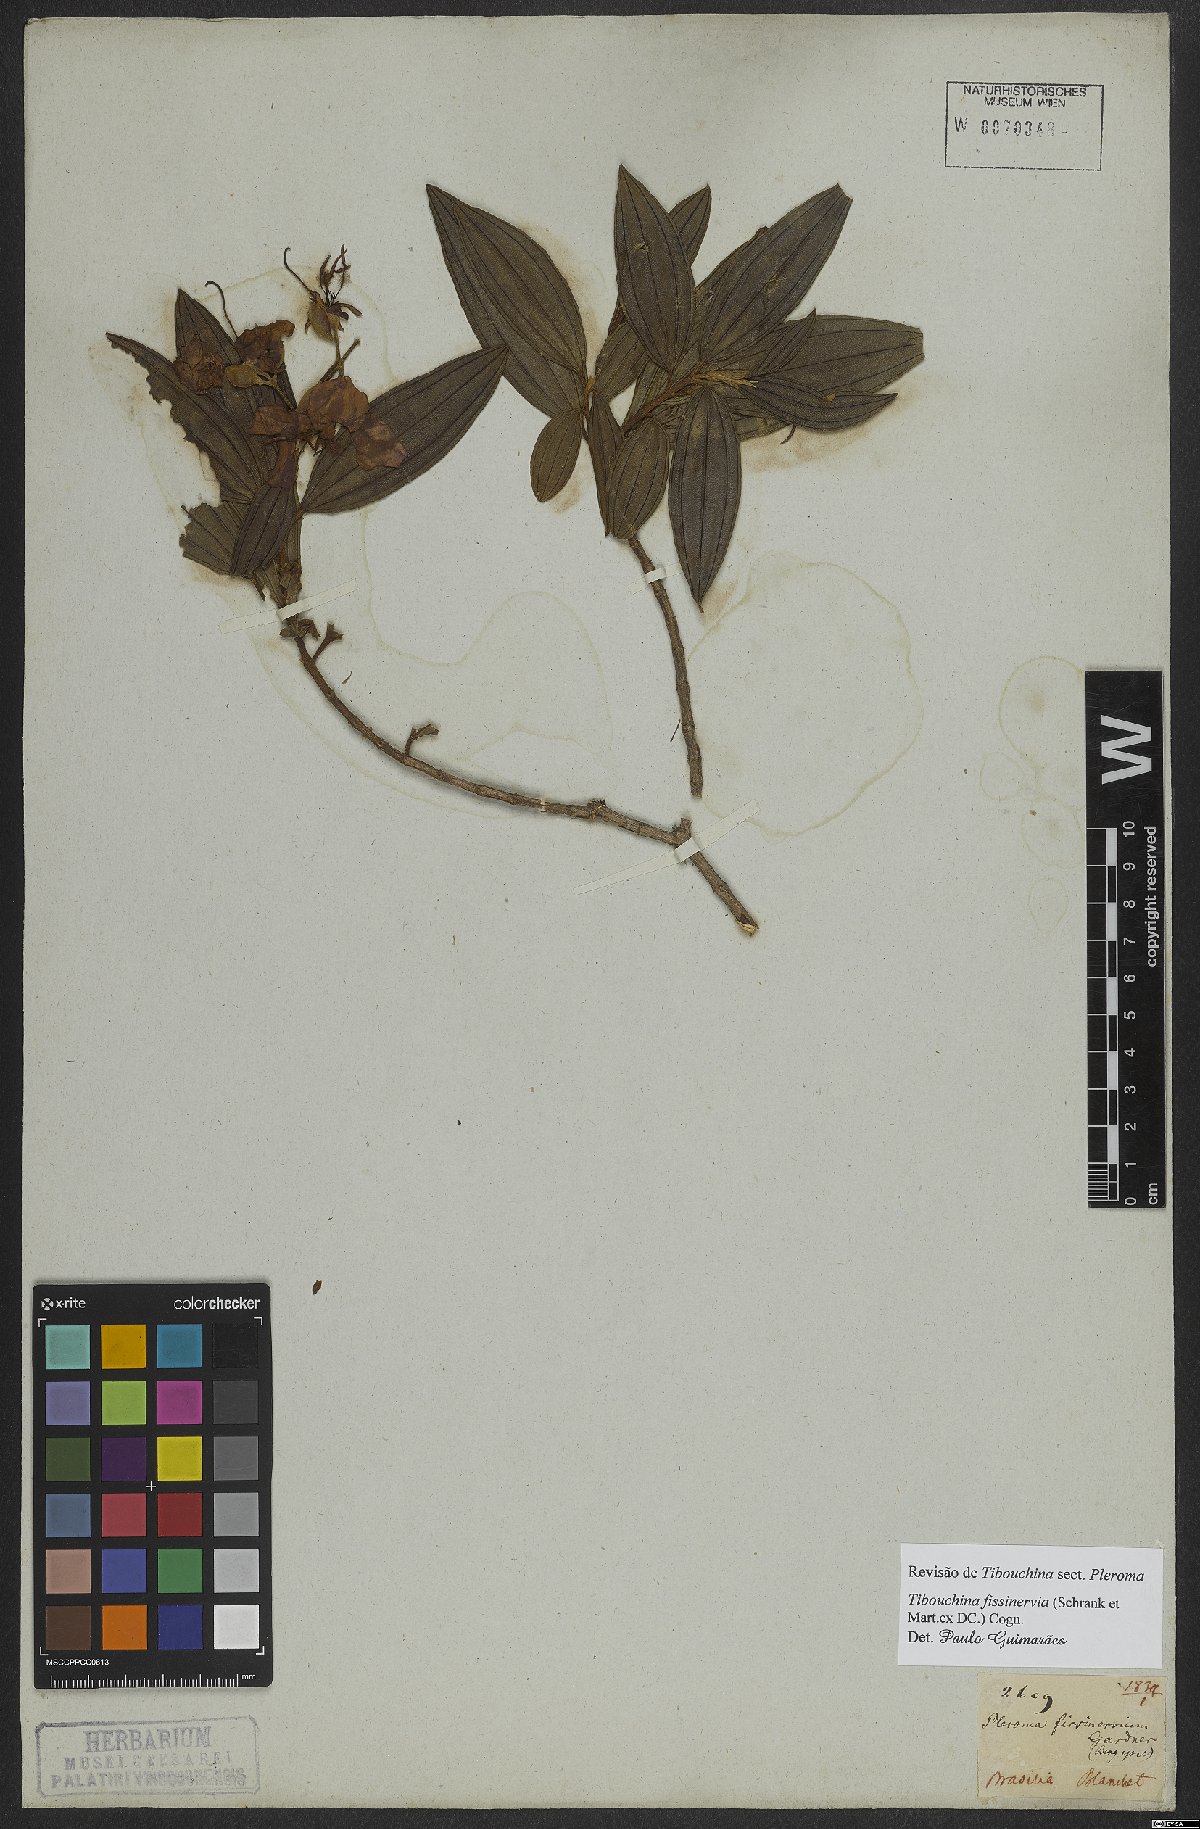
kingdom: Plantae
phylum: Tracheophyta
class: Magnoliopsida
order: Myrtales
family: Melastomataceae
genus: Pleroma
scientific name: Pleroma fissinervium
